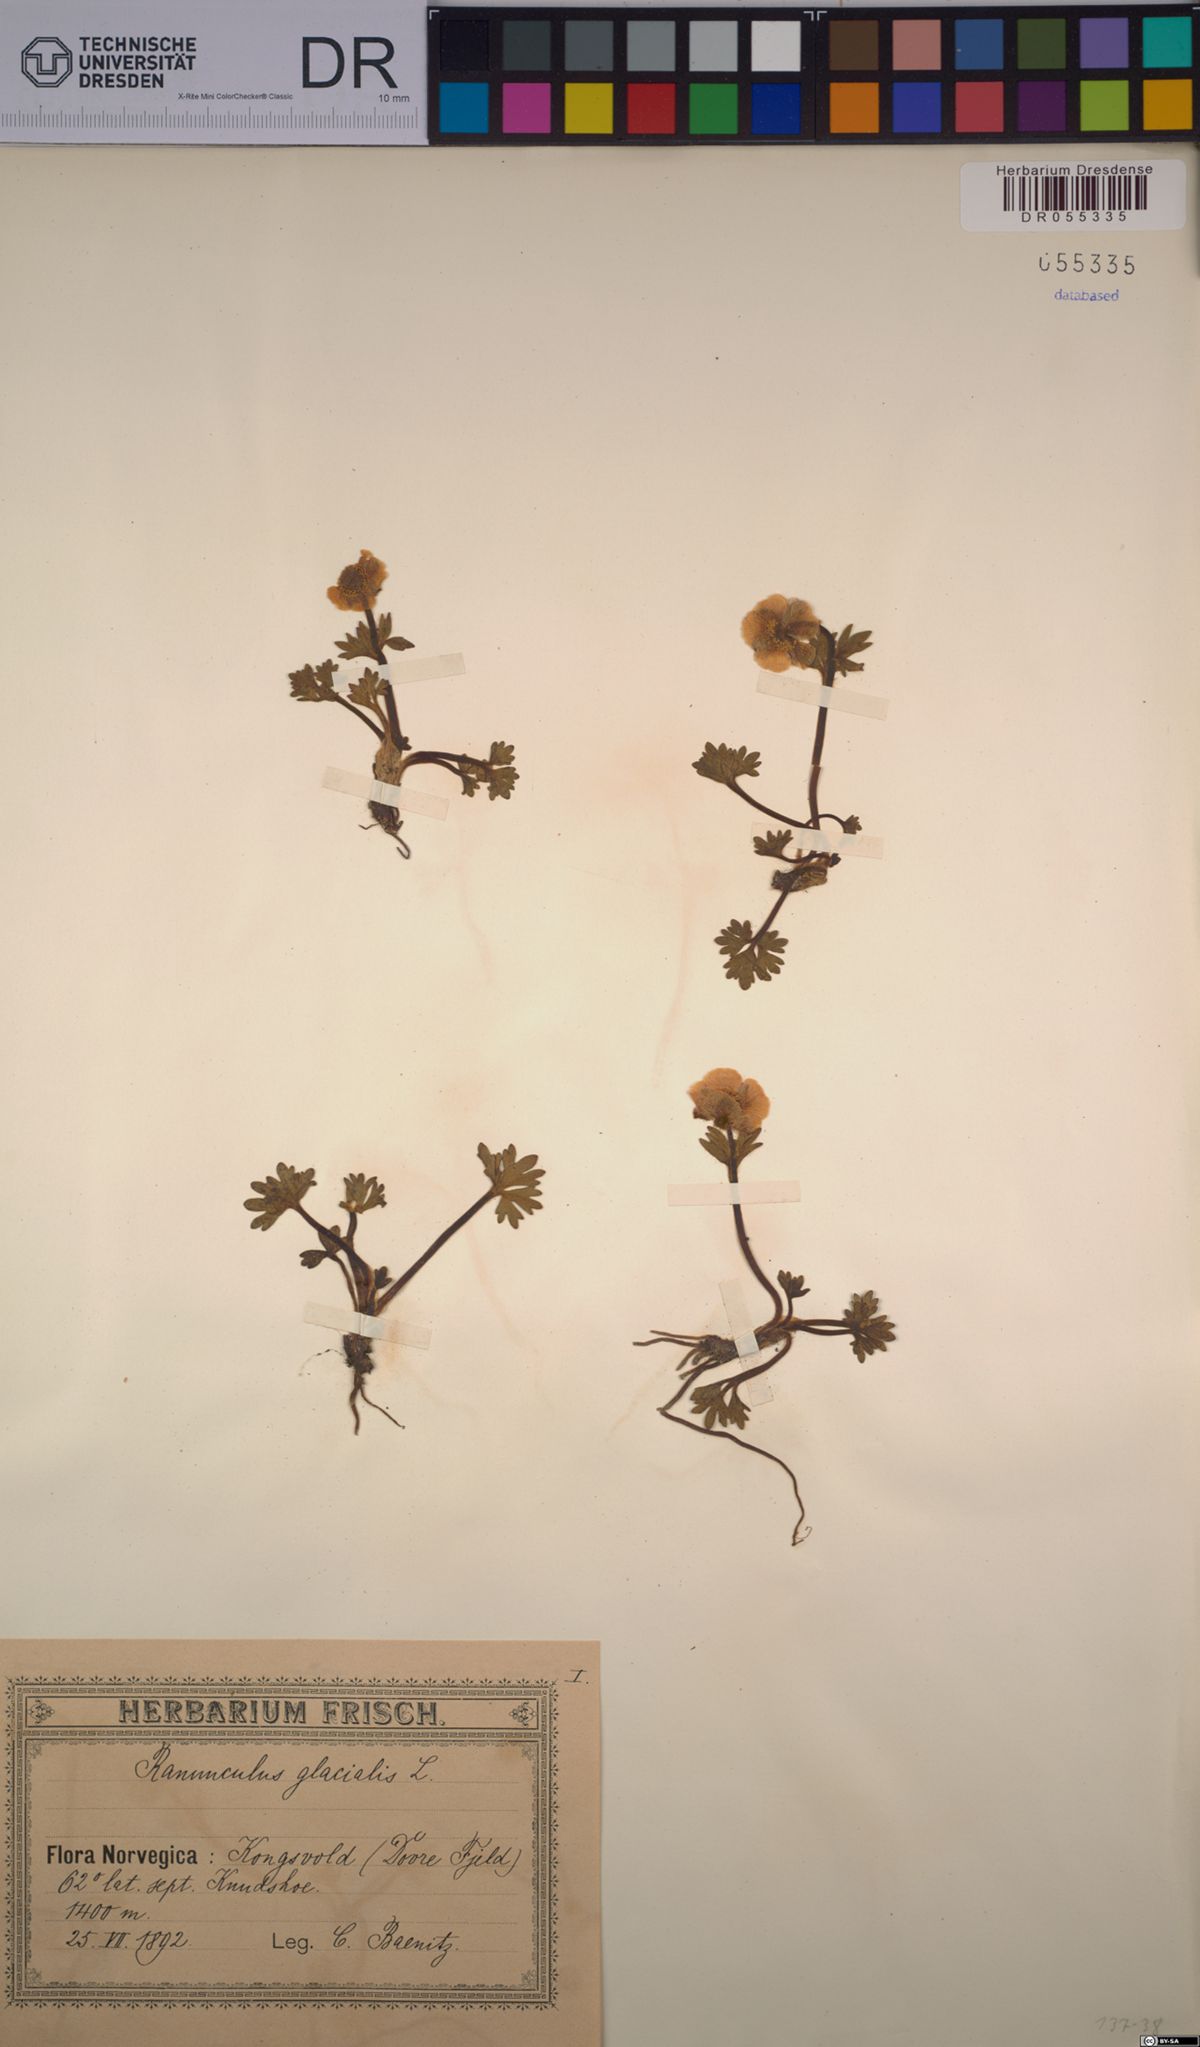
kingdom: Plantae
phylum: Tracheophyta
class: Magnoliopsida
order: Ranunculales
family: Ranunculaceae
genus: Ranunculus
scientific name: Ranunculus glacialis
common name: Glacier buttercup
